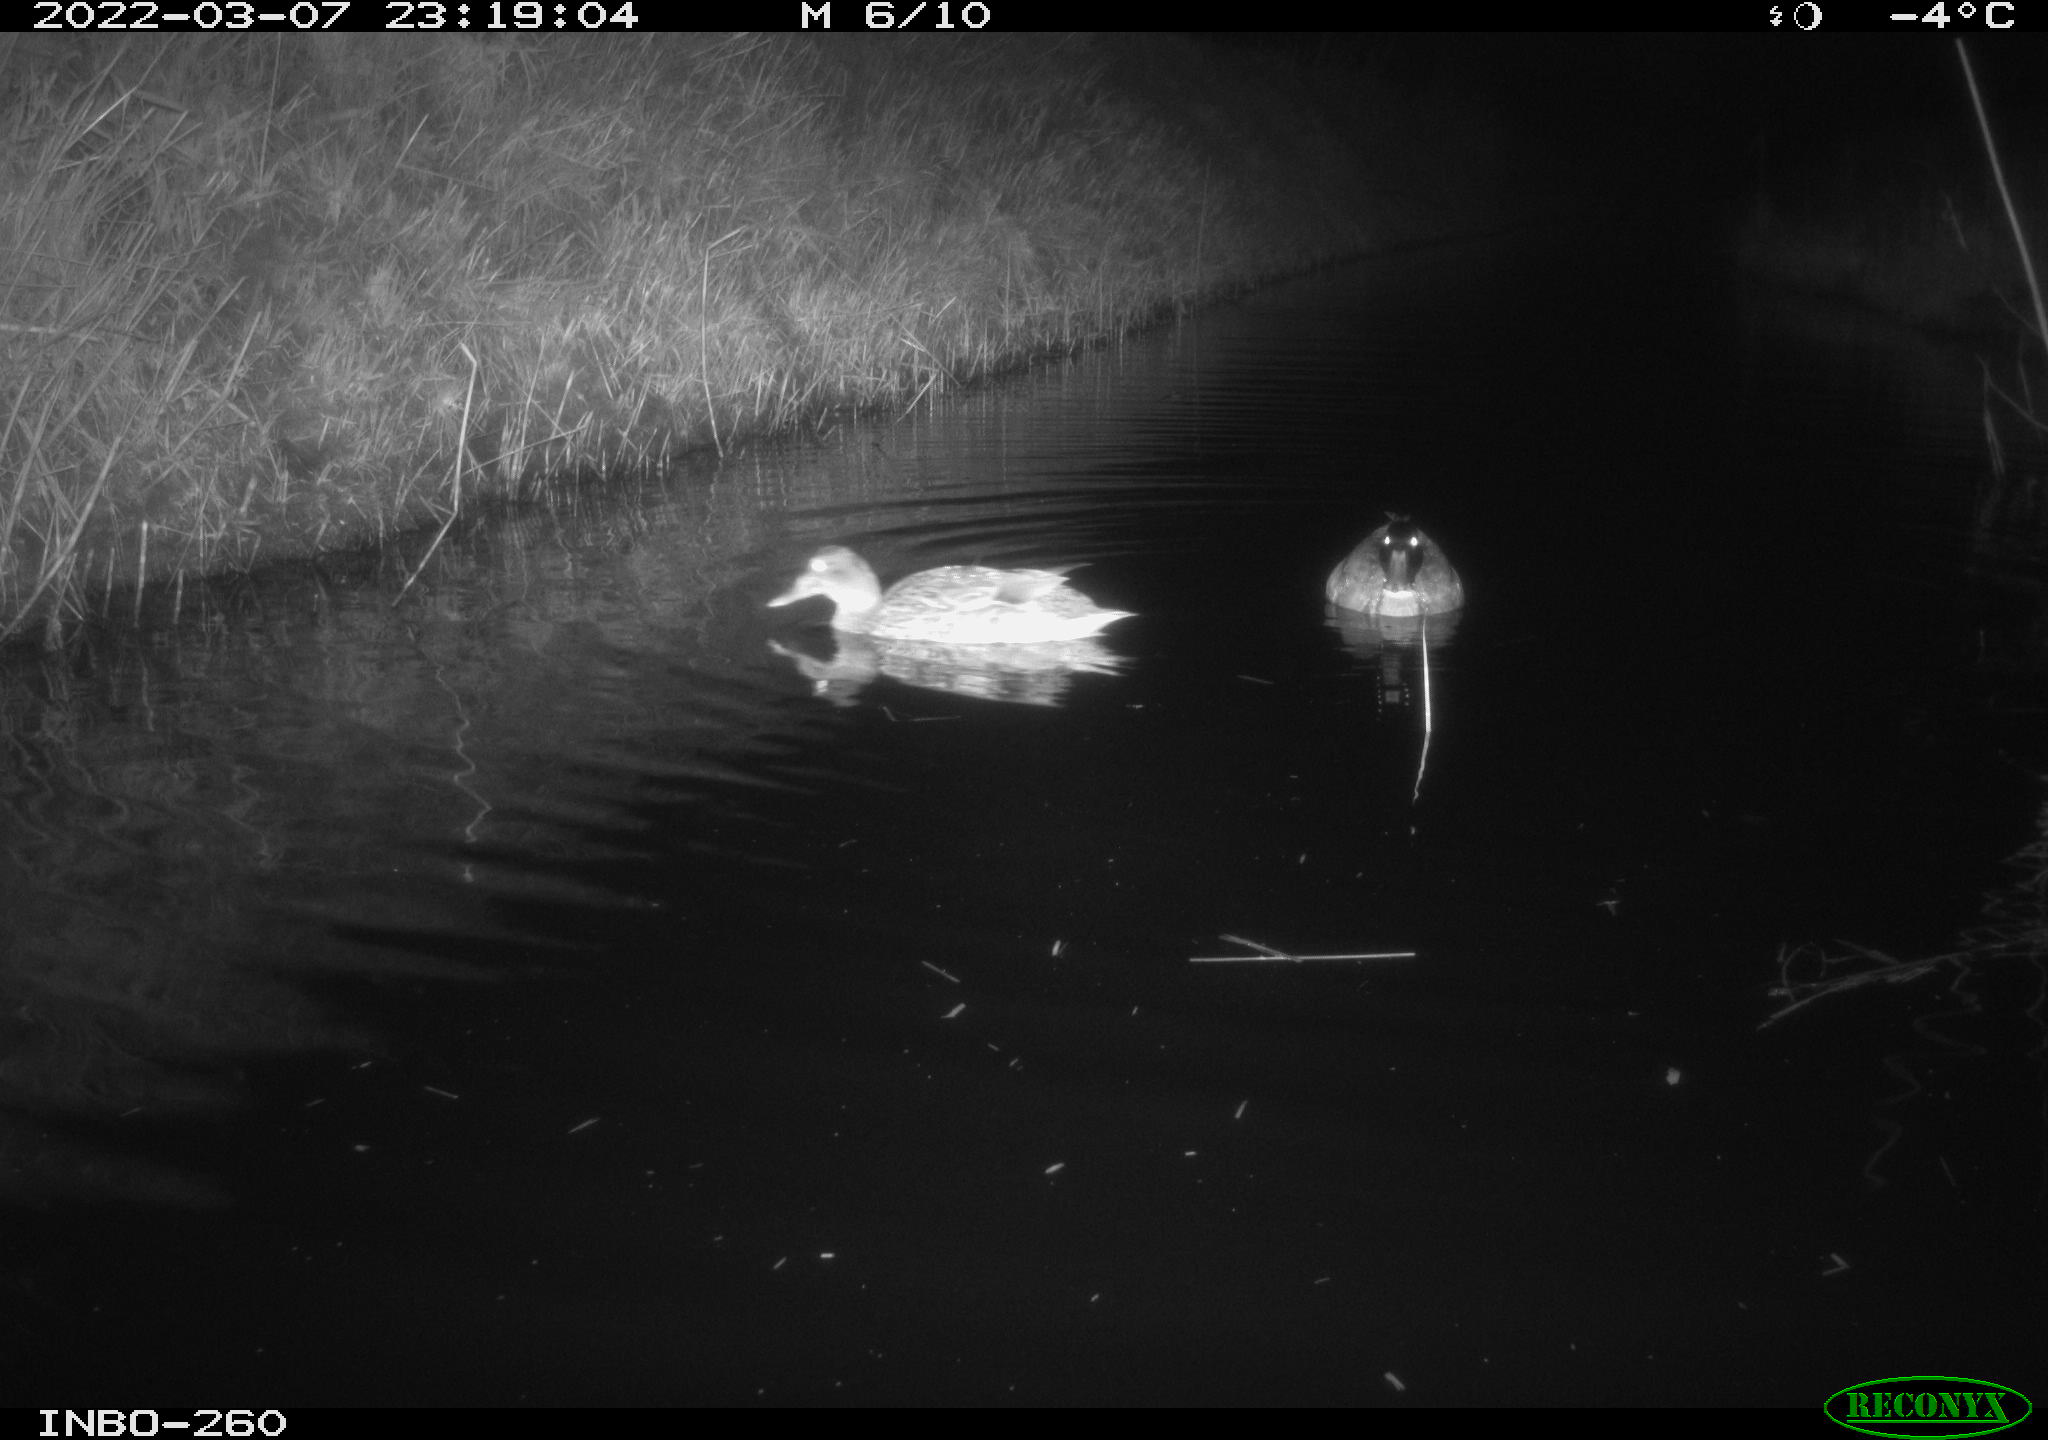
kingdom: Animalia
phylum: Chordata
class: Aves
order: Anseriformes
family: Anatidae
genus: Anas
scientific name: Anas crecca
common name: Eurasian teal
